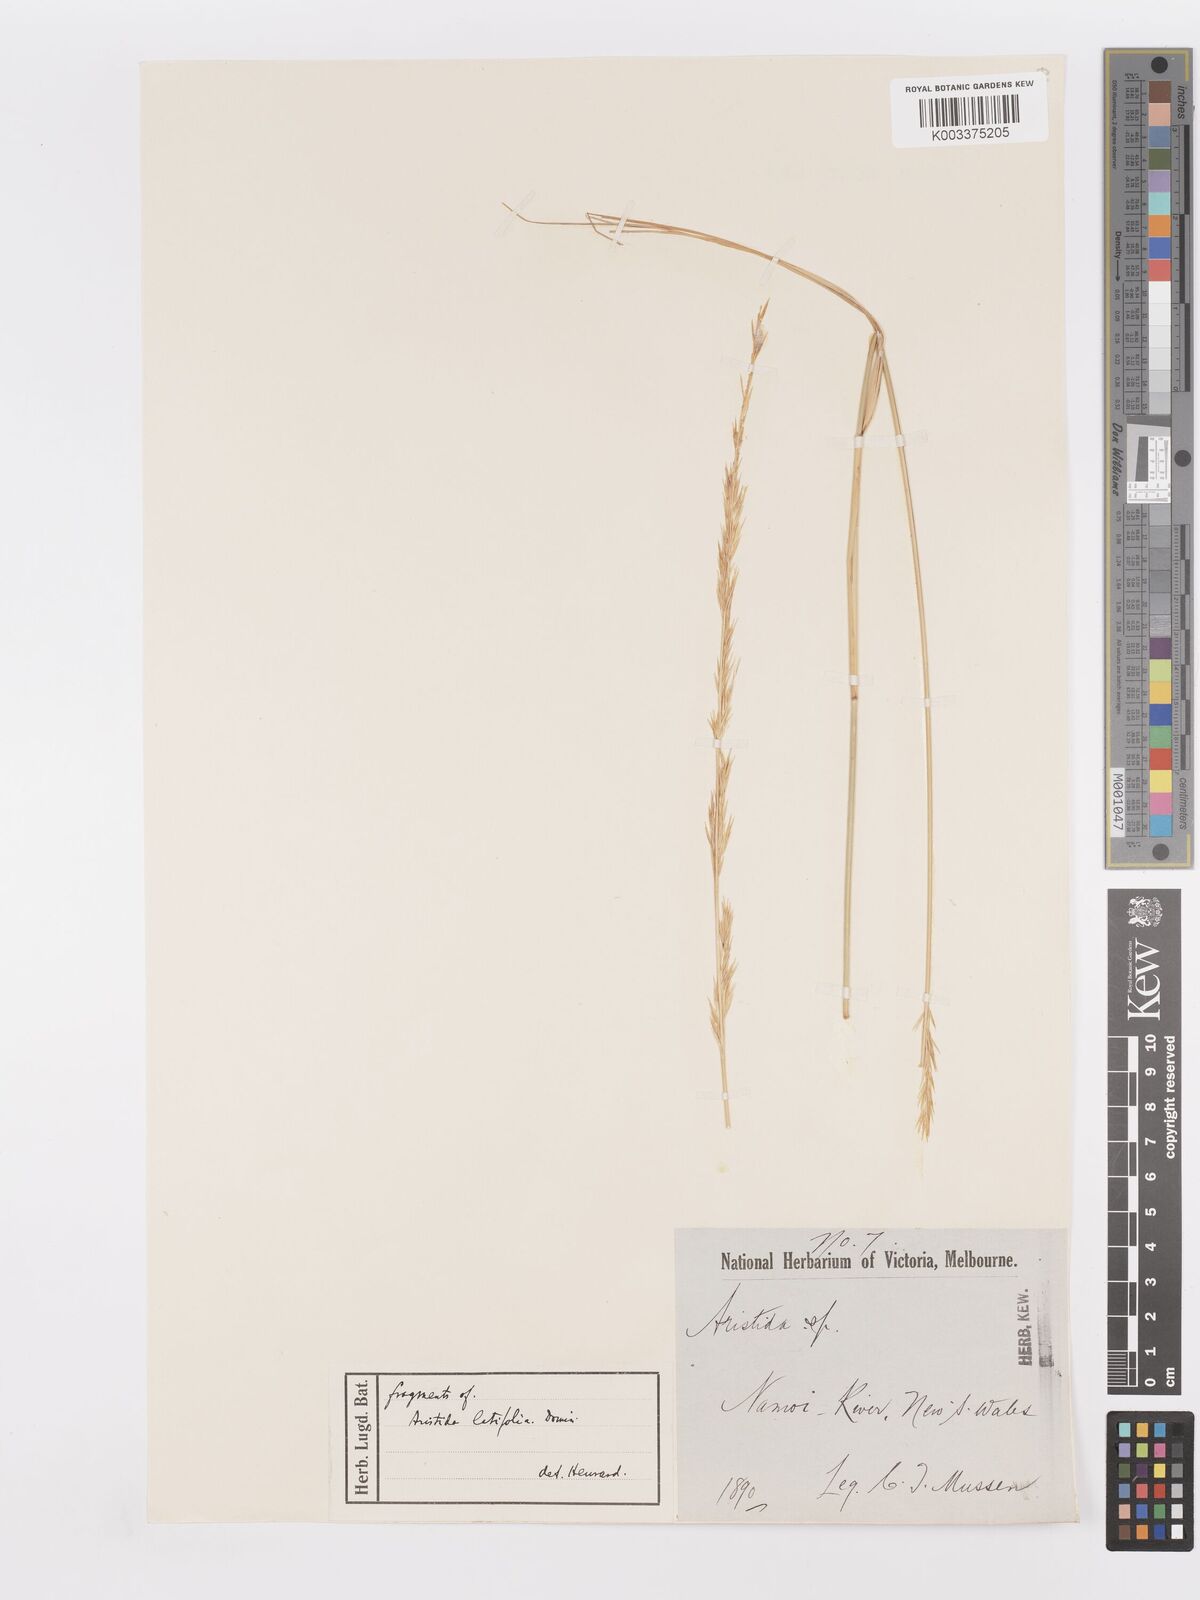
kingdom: Plantae
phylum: Tracheophyta
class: Liliopsida
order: Poales
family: Poaceae
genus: Aristida
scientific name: Aristida latifolia
